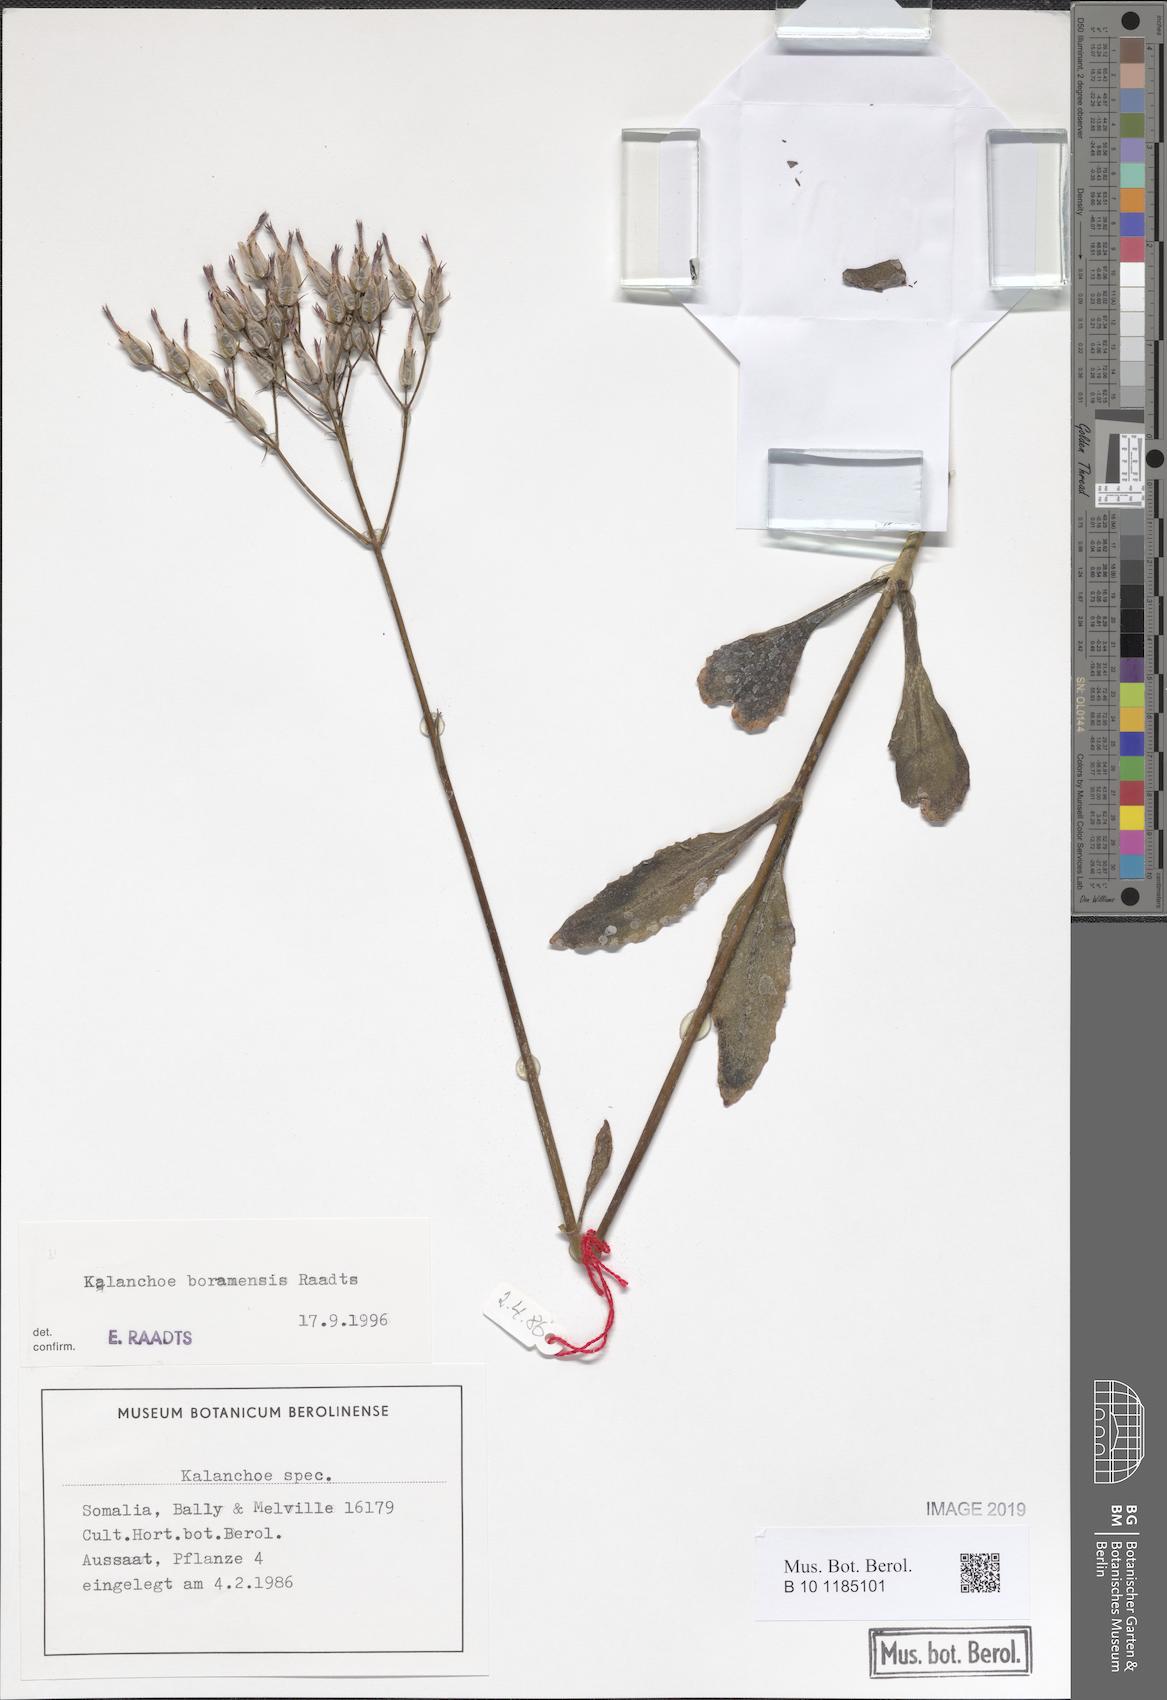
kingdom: Plantae
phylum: Tracheophyta
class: Magnoliopsida
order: Saxifragales
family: Crassulaceae
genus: Kalanchoe
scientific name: Kalanchoe
